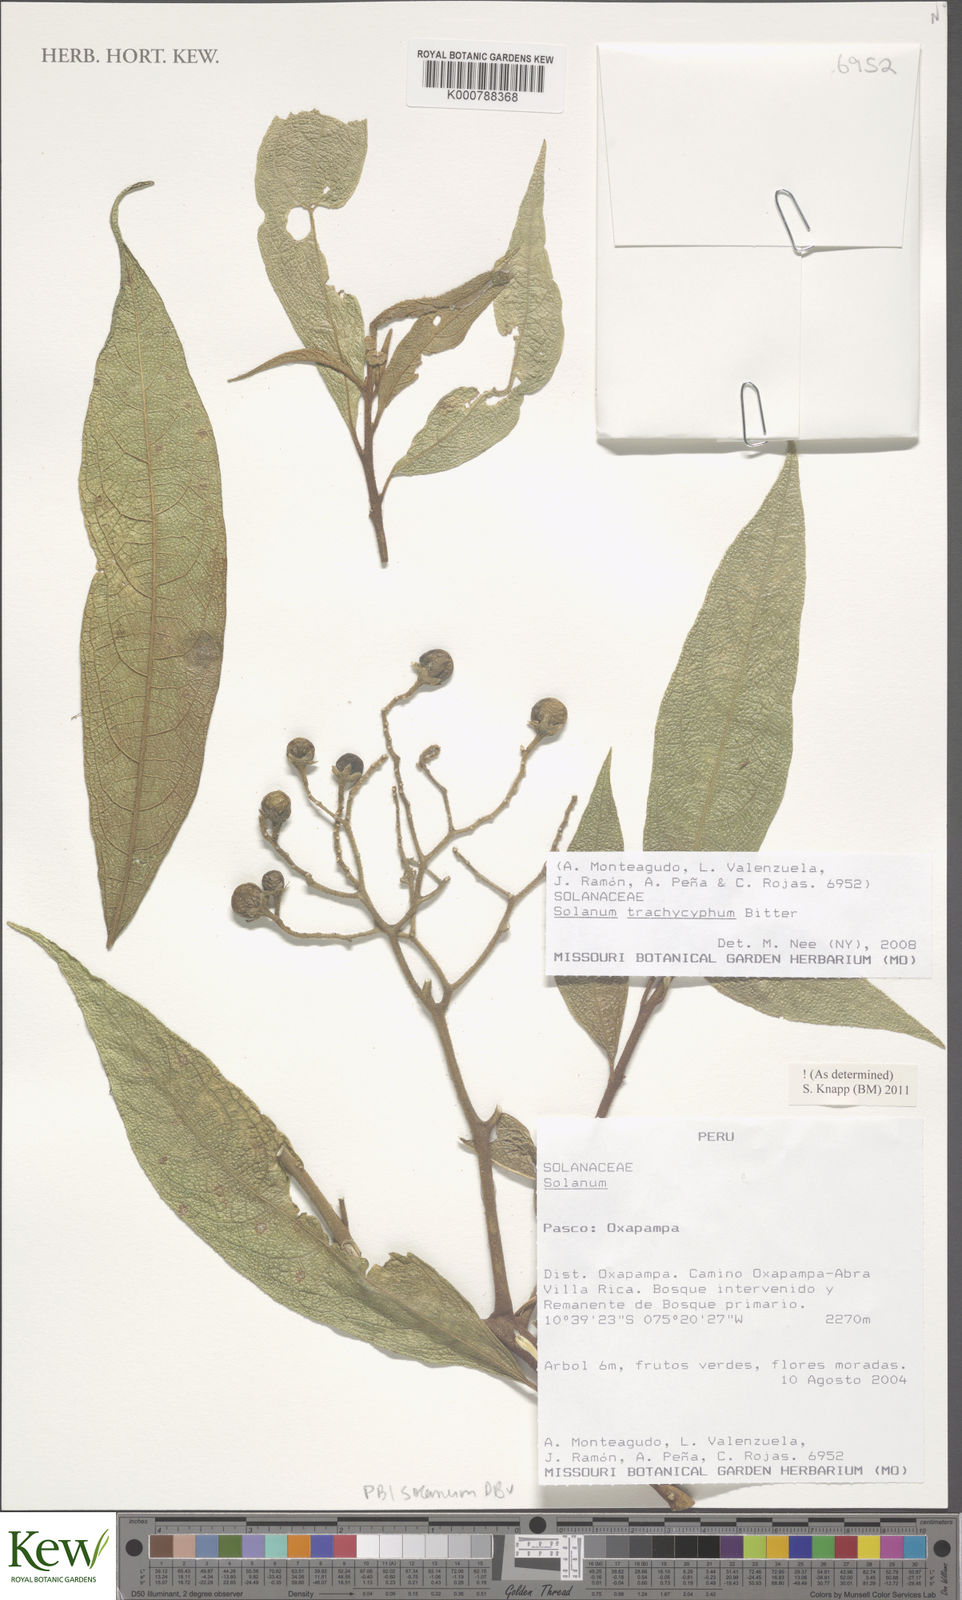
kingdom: Plantae
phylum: Tracheophyta
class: Magnoliopsida
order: Solanales
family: Solanaceae
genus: Solanum
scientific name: Solanum trachycyphum
